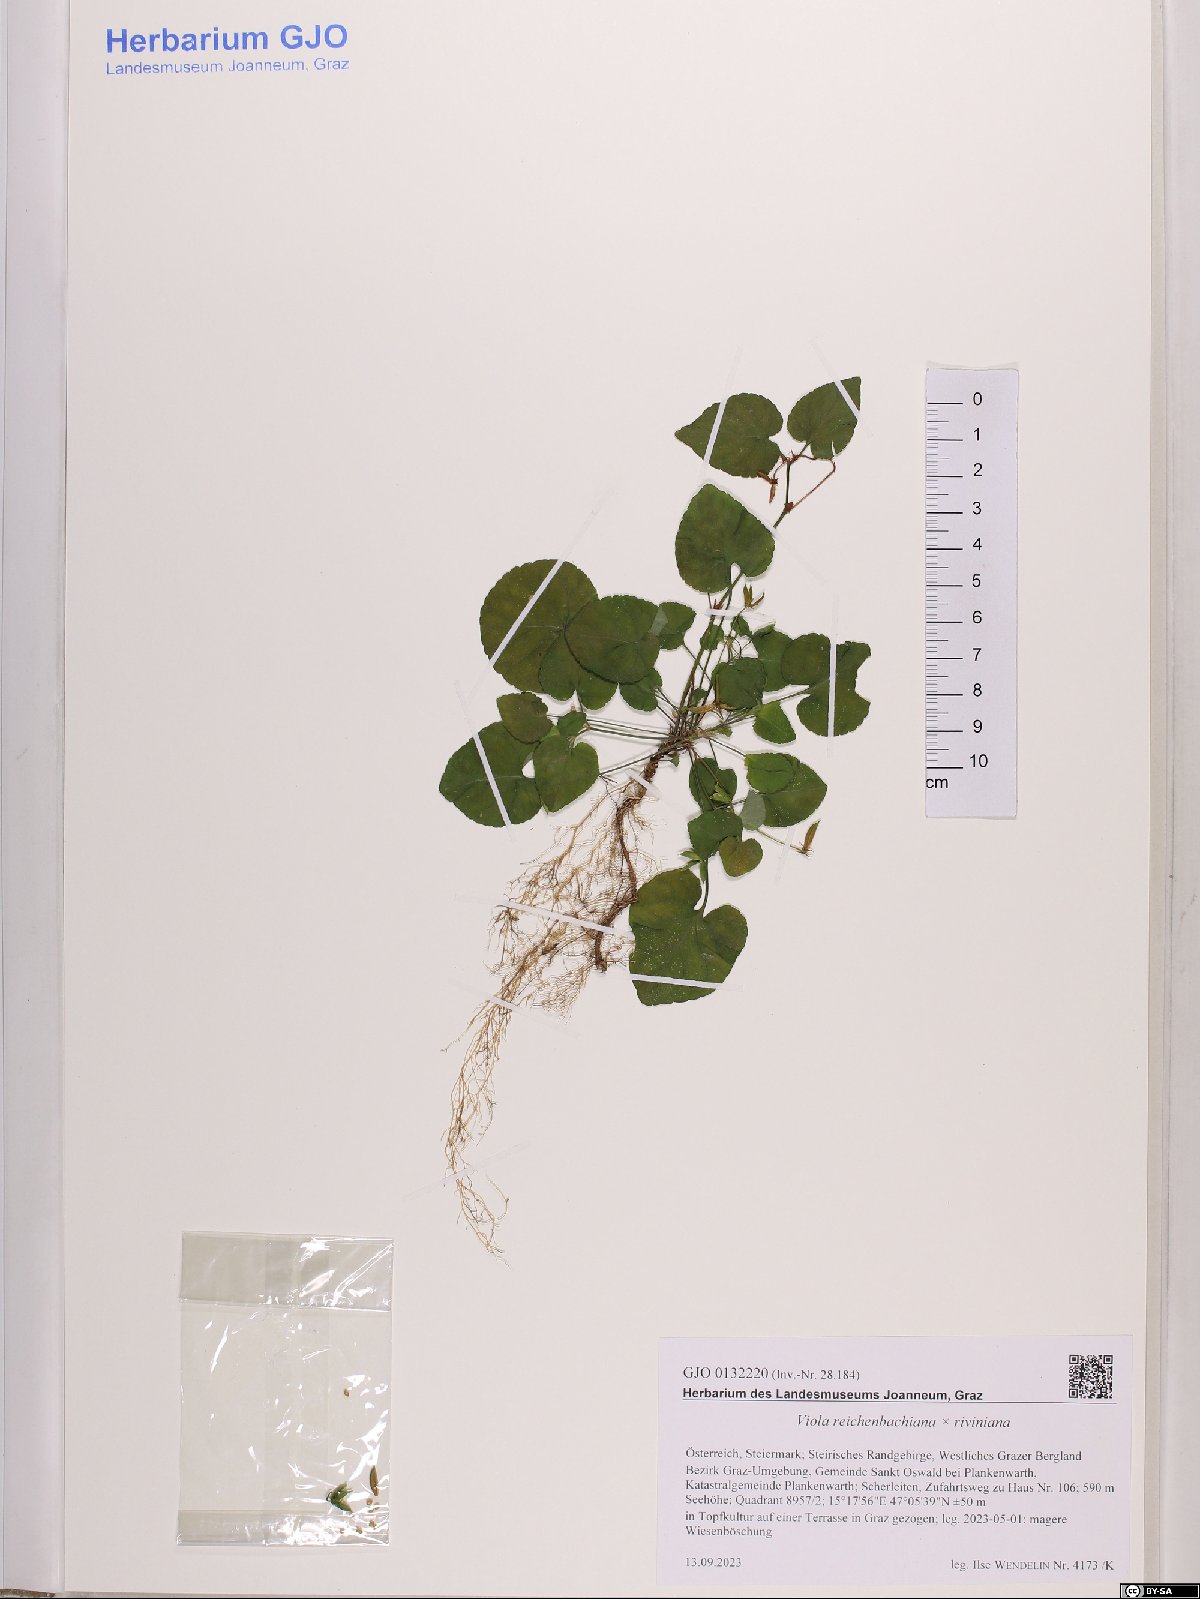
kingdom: Plantae
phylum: Tracheophyta
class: Magnoliopsida
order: Malpighiales
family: Violaceae
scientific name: Violaceae
